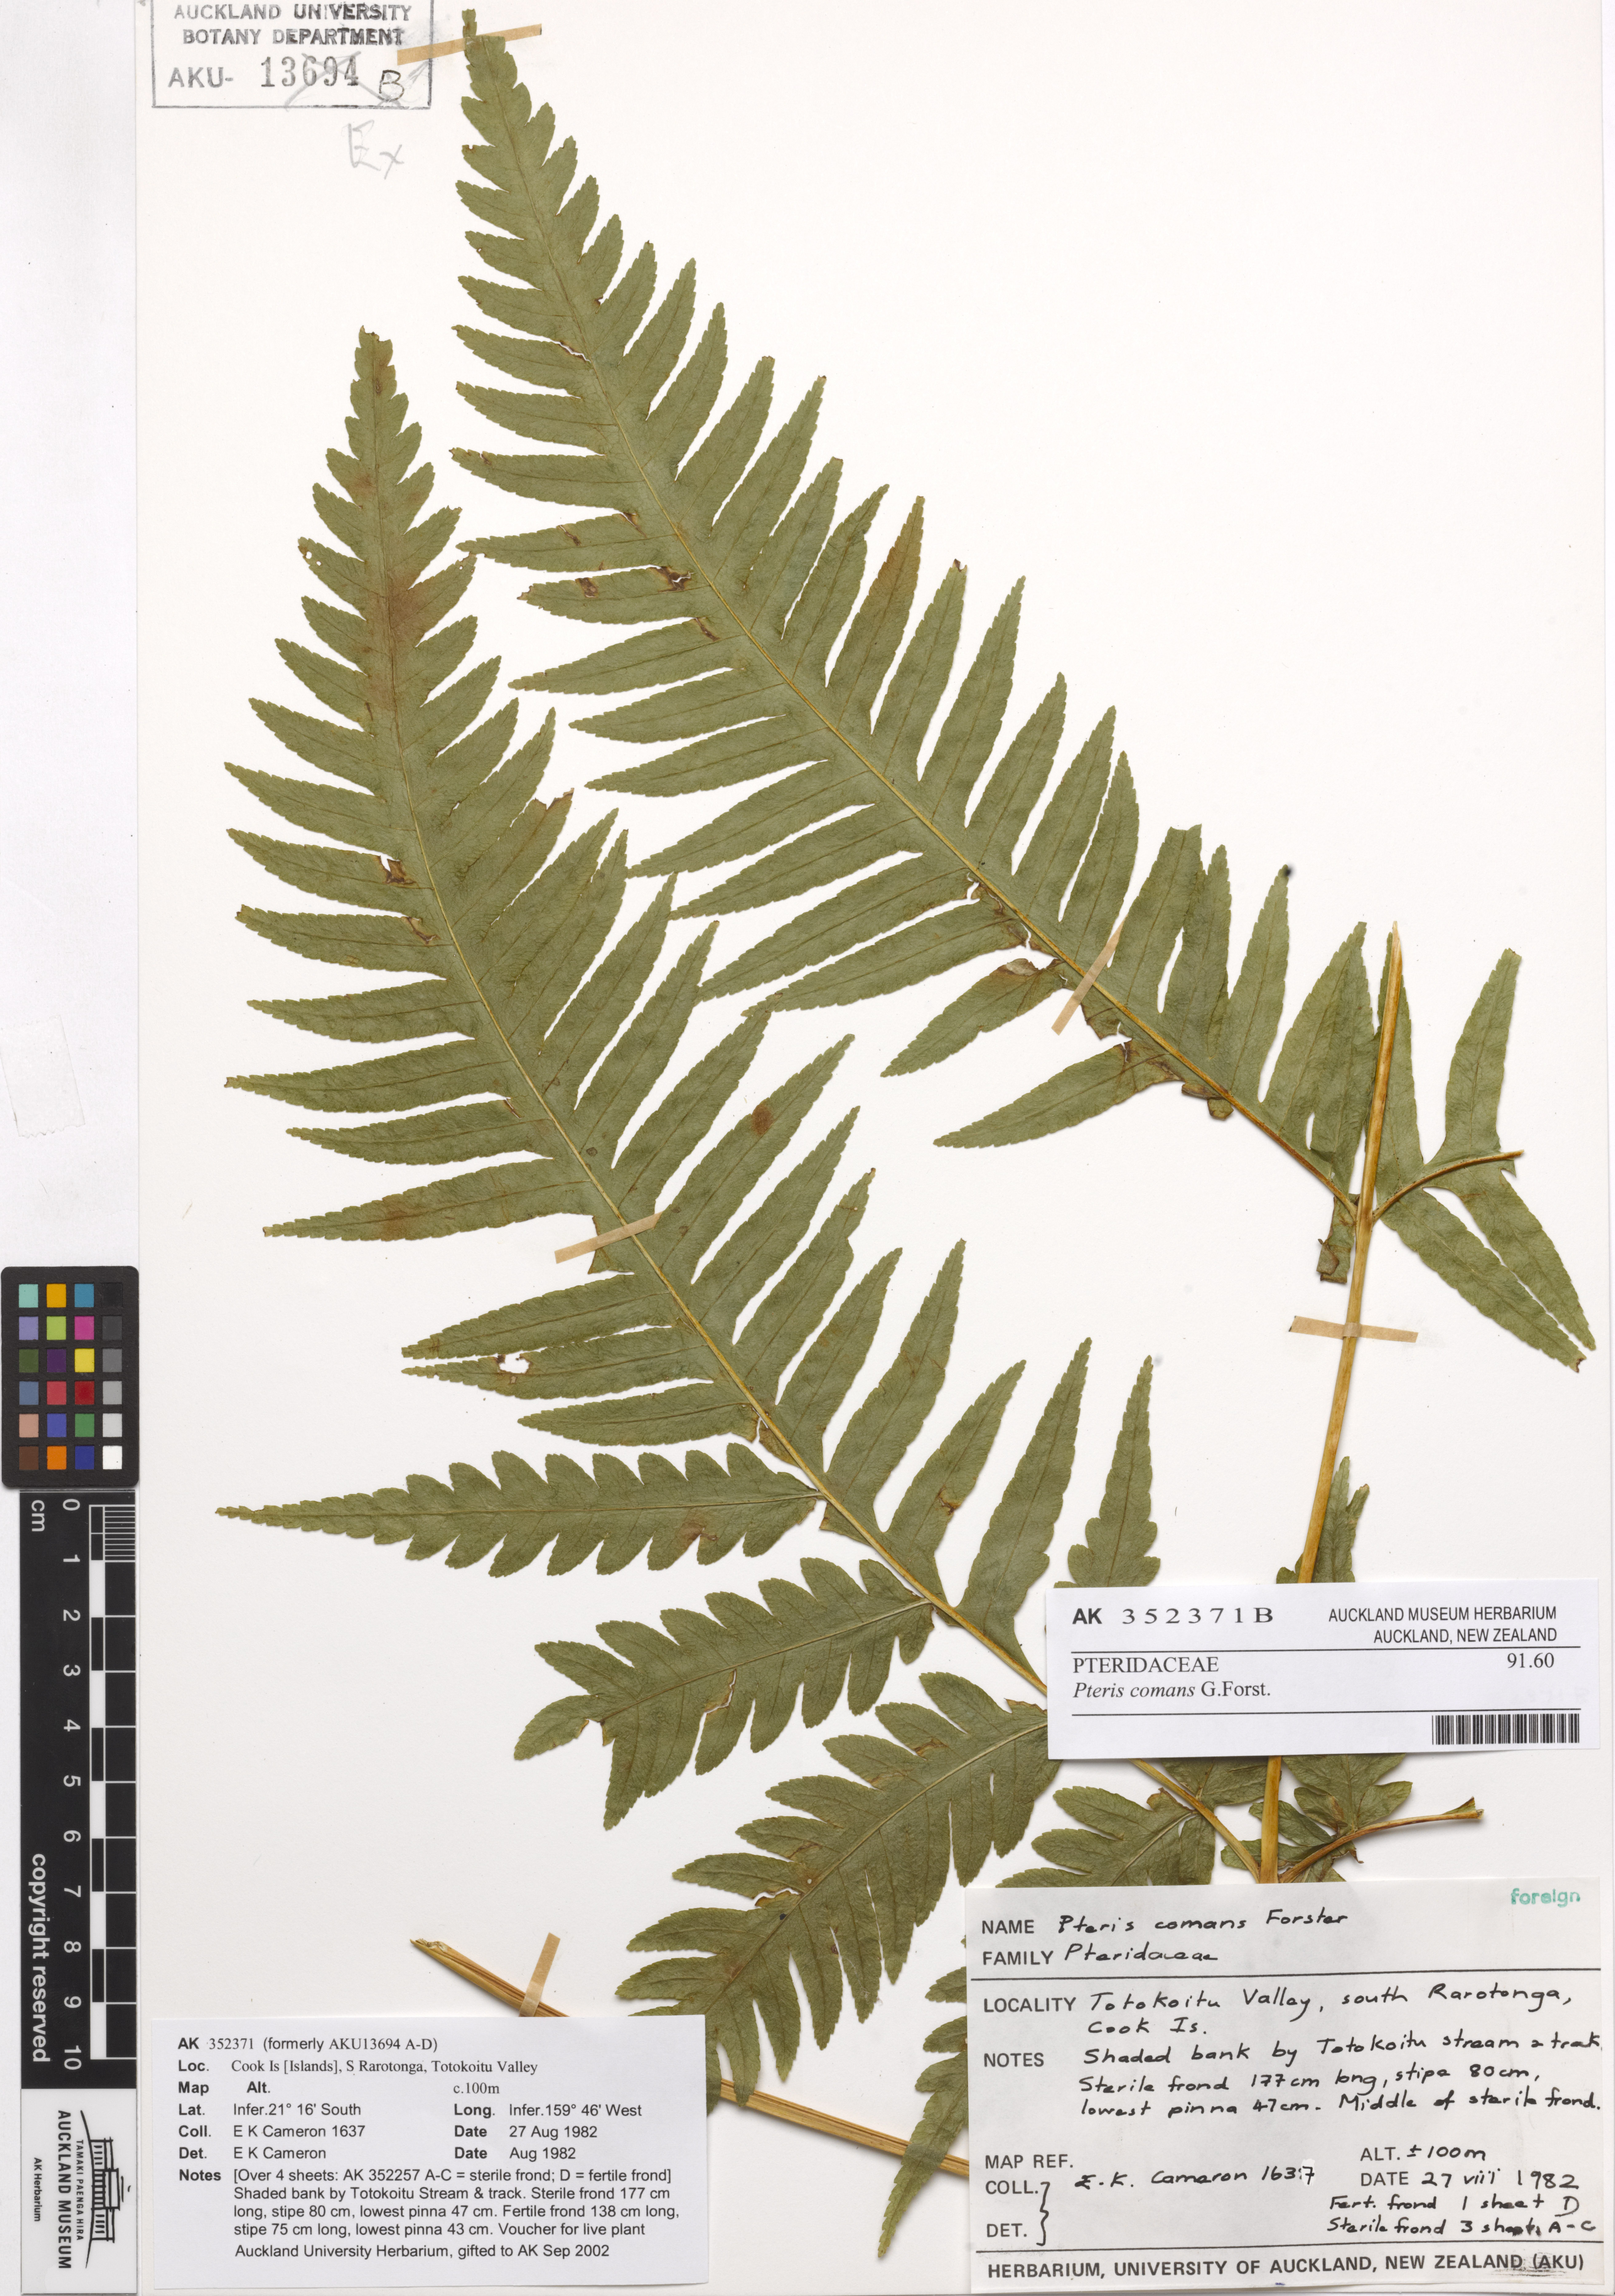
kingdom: Plantae
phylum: Tracheophyta
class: Polypodiopsida
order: Polypodiales
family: Pteridaceae
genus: Pteris
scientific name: Pteris comans
